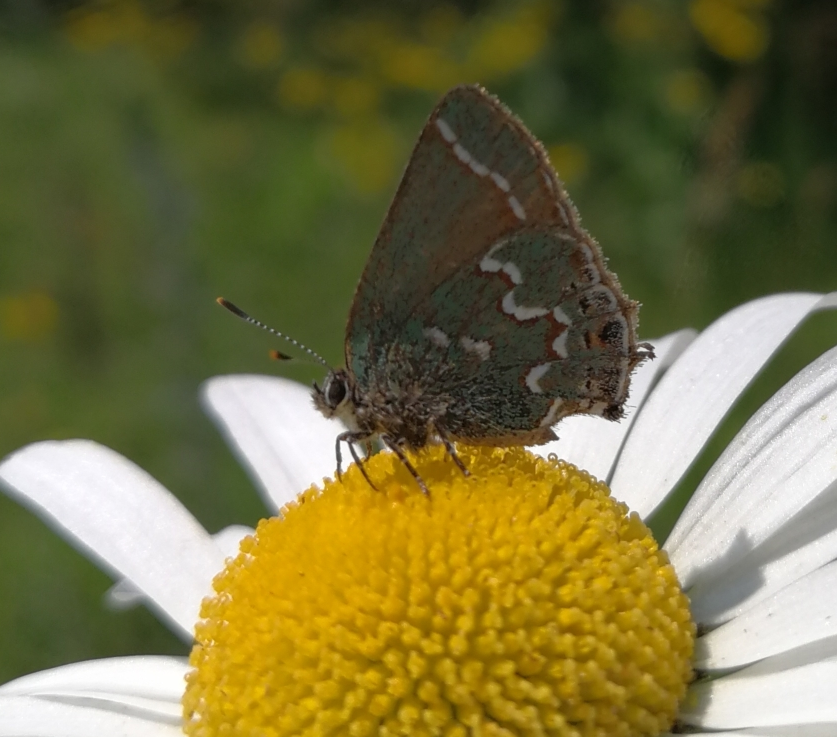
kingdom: Animalia
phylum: Arthropoda
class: Insecta
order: Lepidoptera
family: Lycaenidae
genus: Mitoura
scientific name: Mitoura gryneus
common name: Juniper Hairstreak
